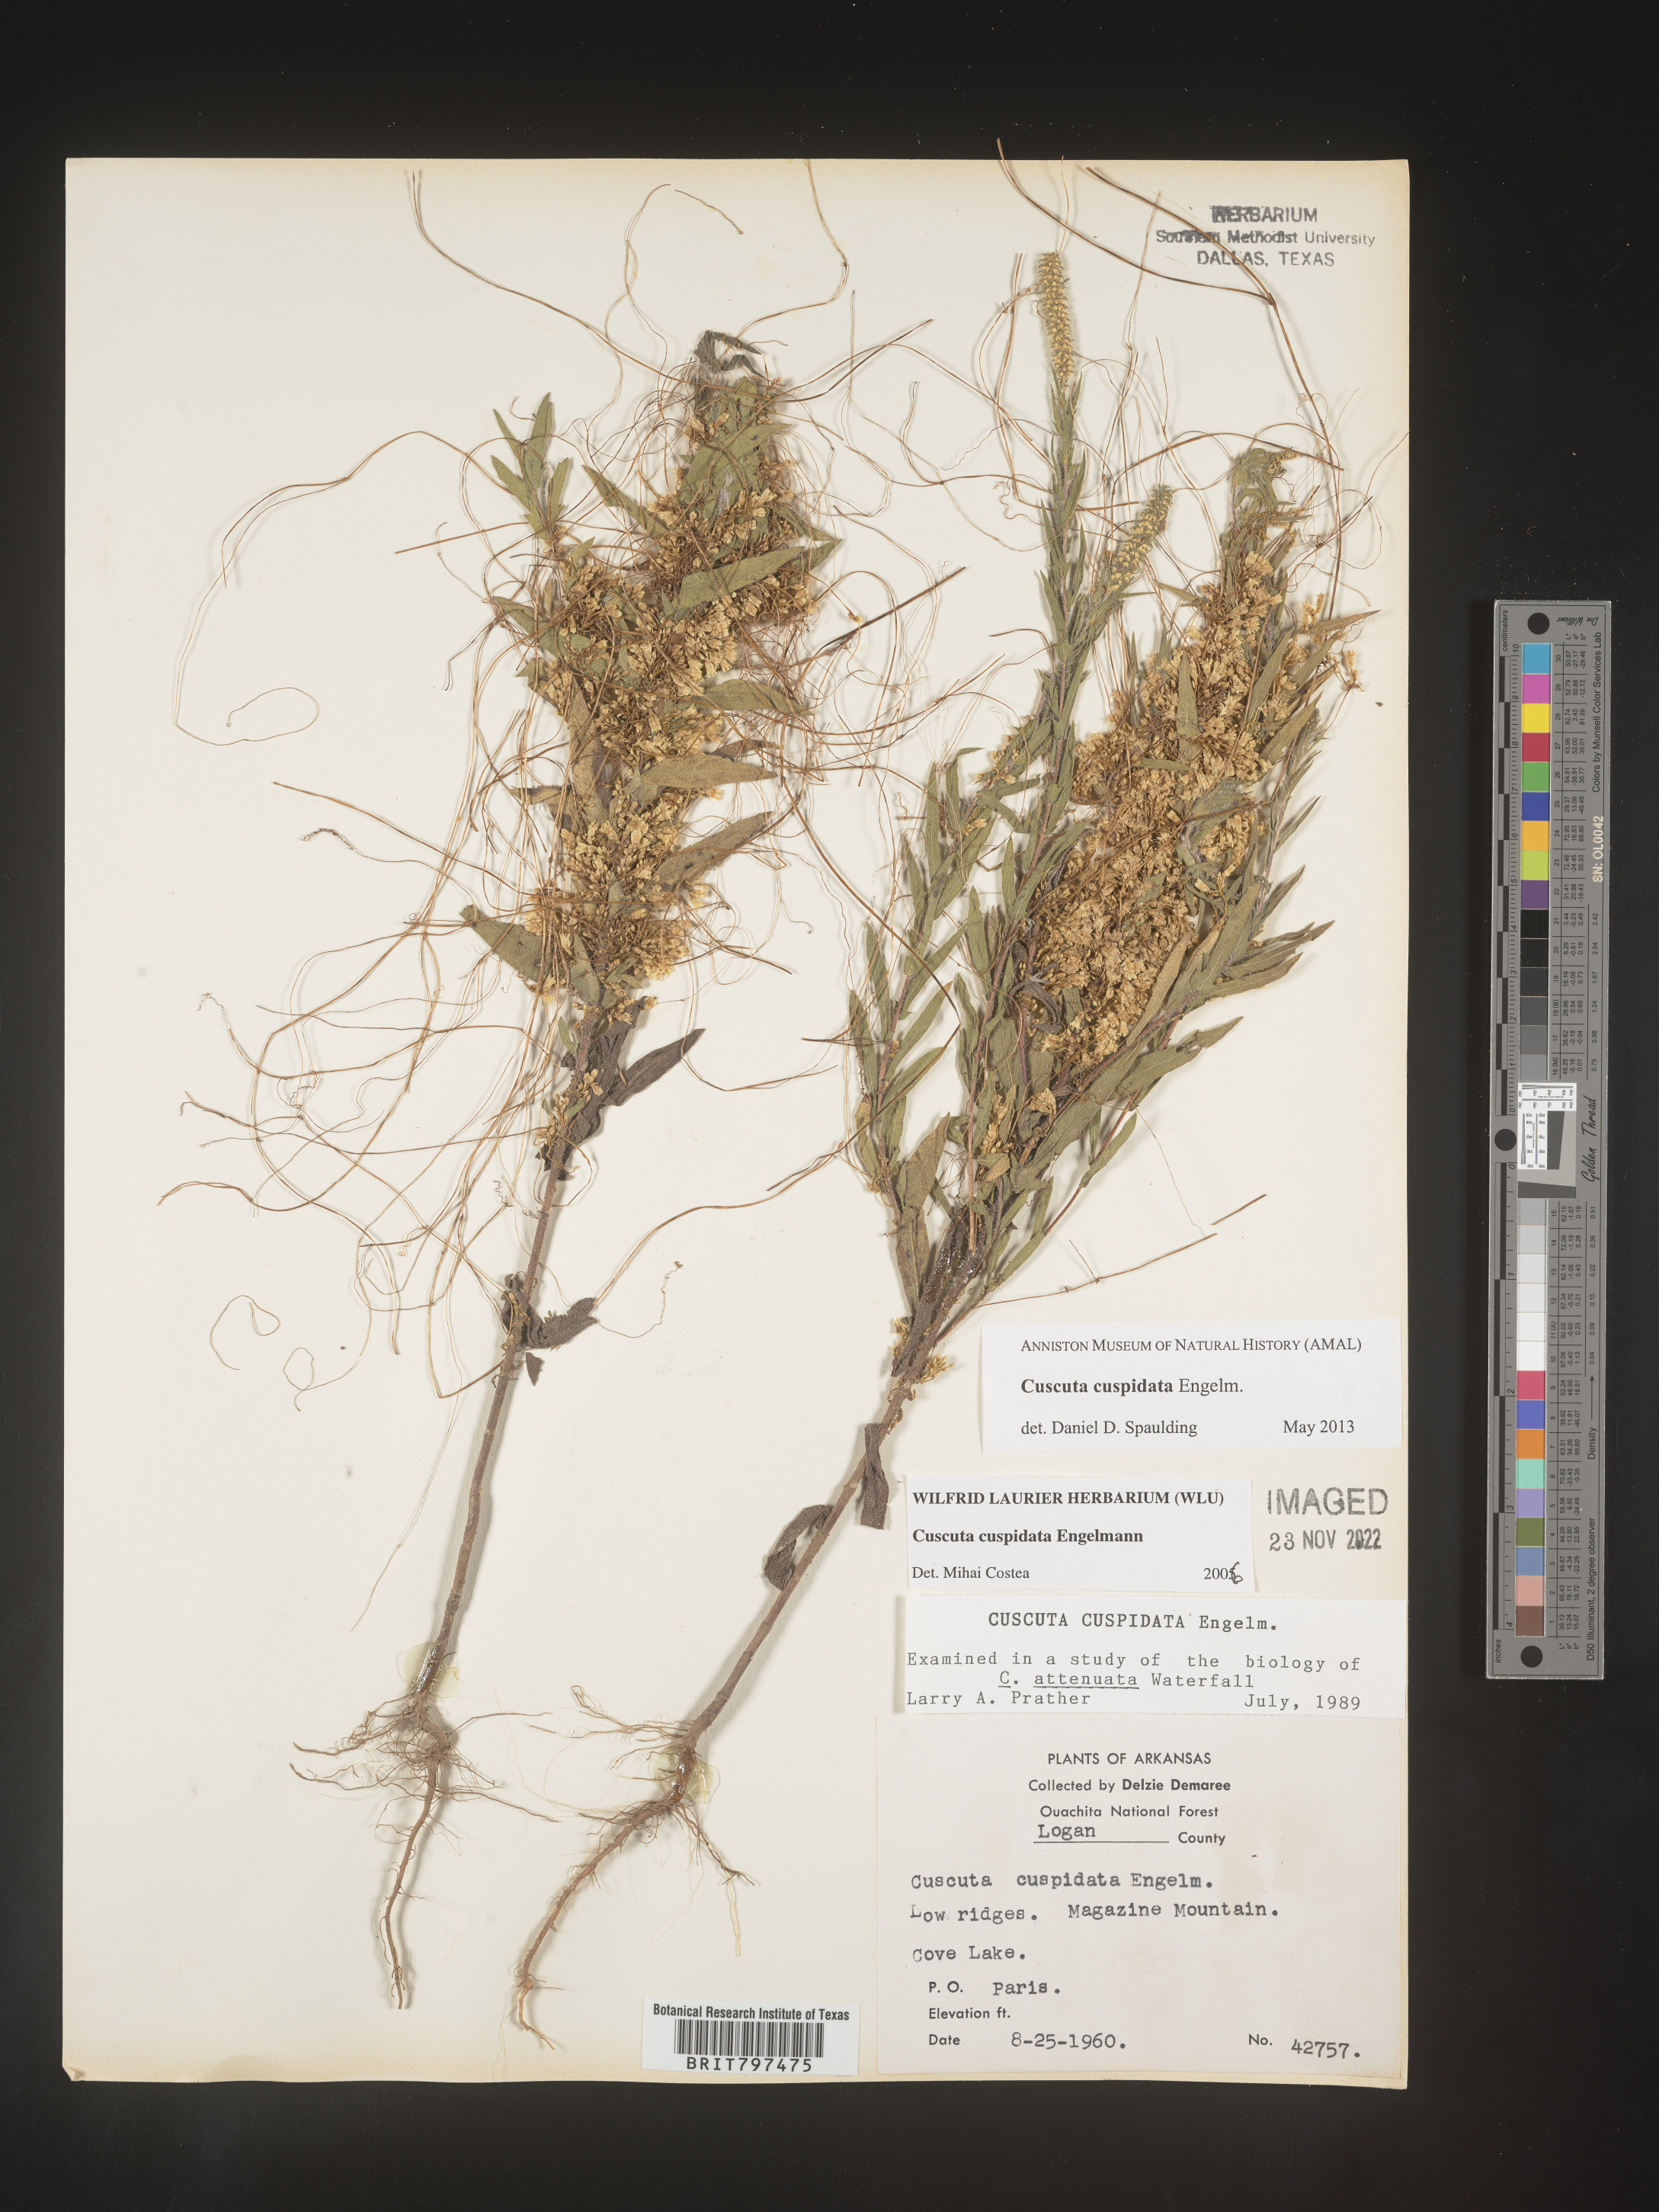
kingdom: Plantae
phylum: Tracheophyta
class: Magnoliopsida
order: Solanales
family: Convolvulaceae
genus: Cuscuta
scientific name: Cuscuta cuspidata
